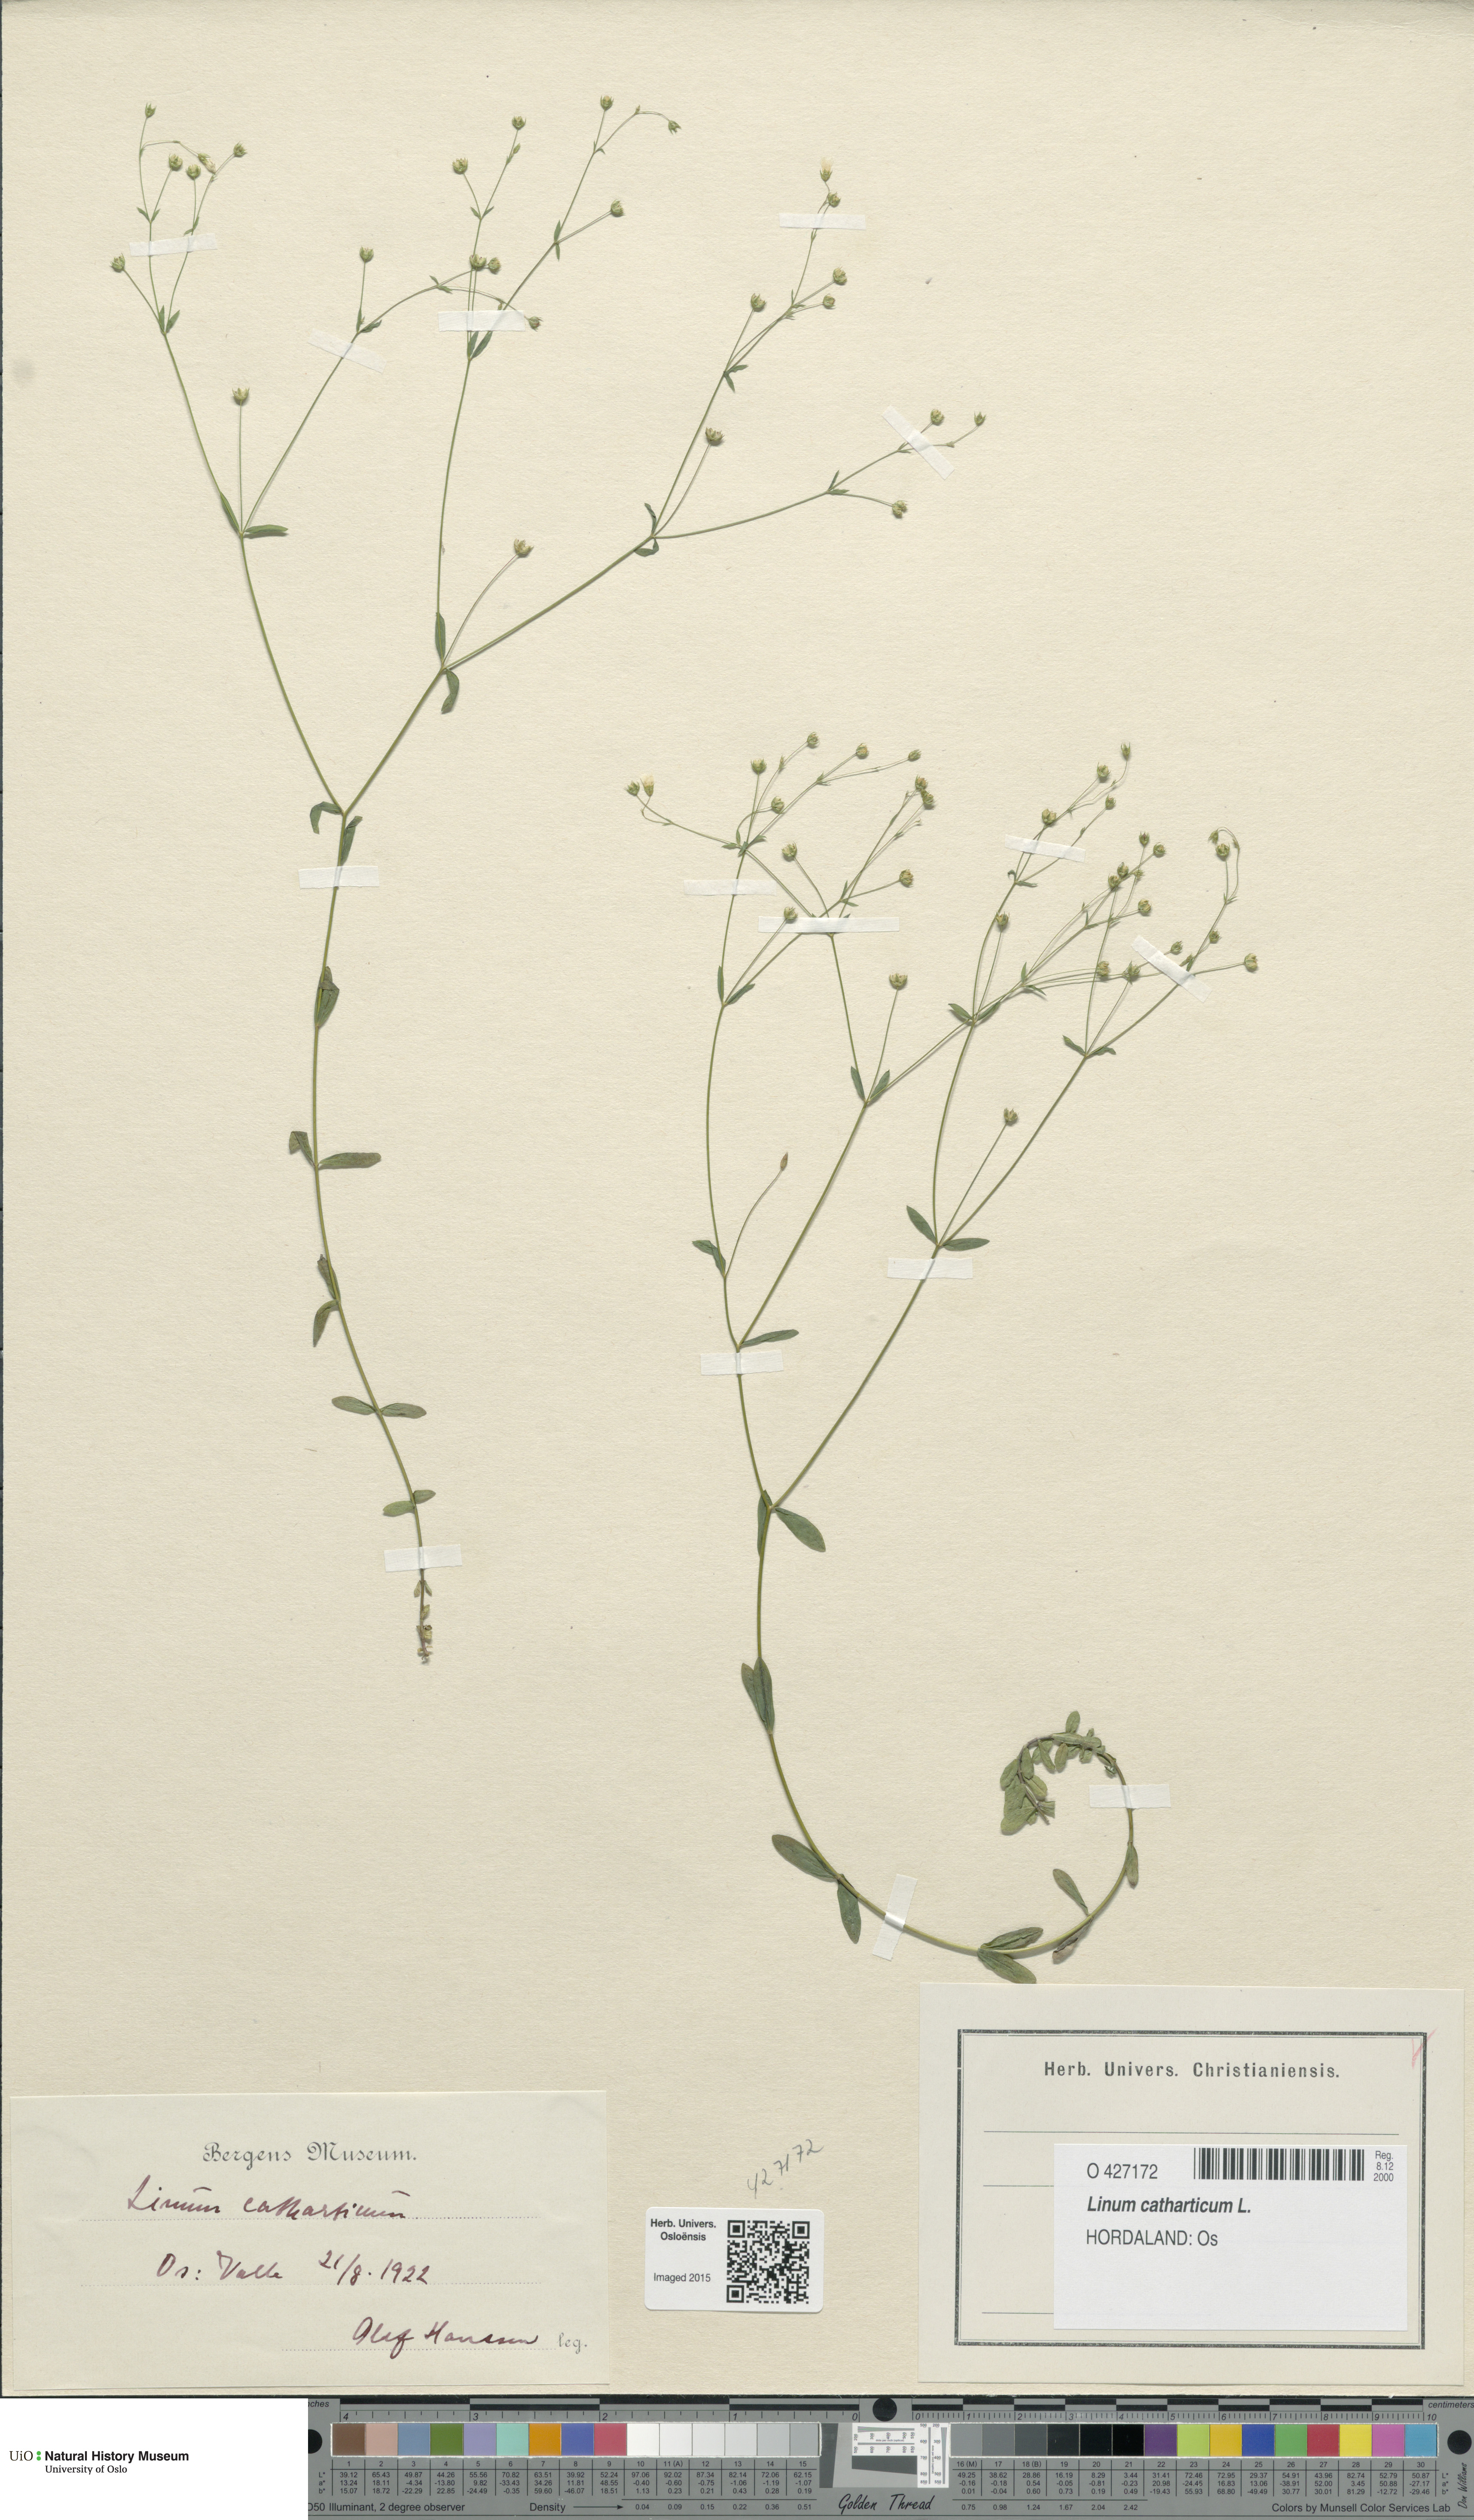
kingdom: Plantae
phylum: Tracheophyta
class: Magnoliopsida
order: Malpighiales
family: Linaceae
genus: Linum
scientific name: Linum catharticum
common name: Fairy flax
